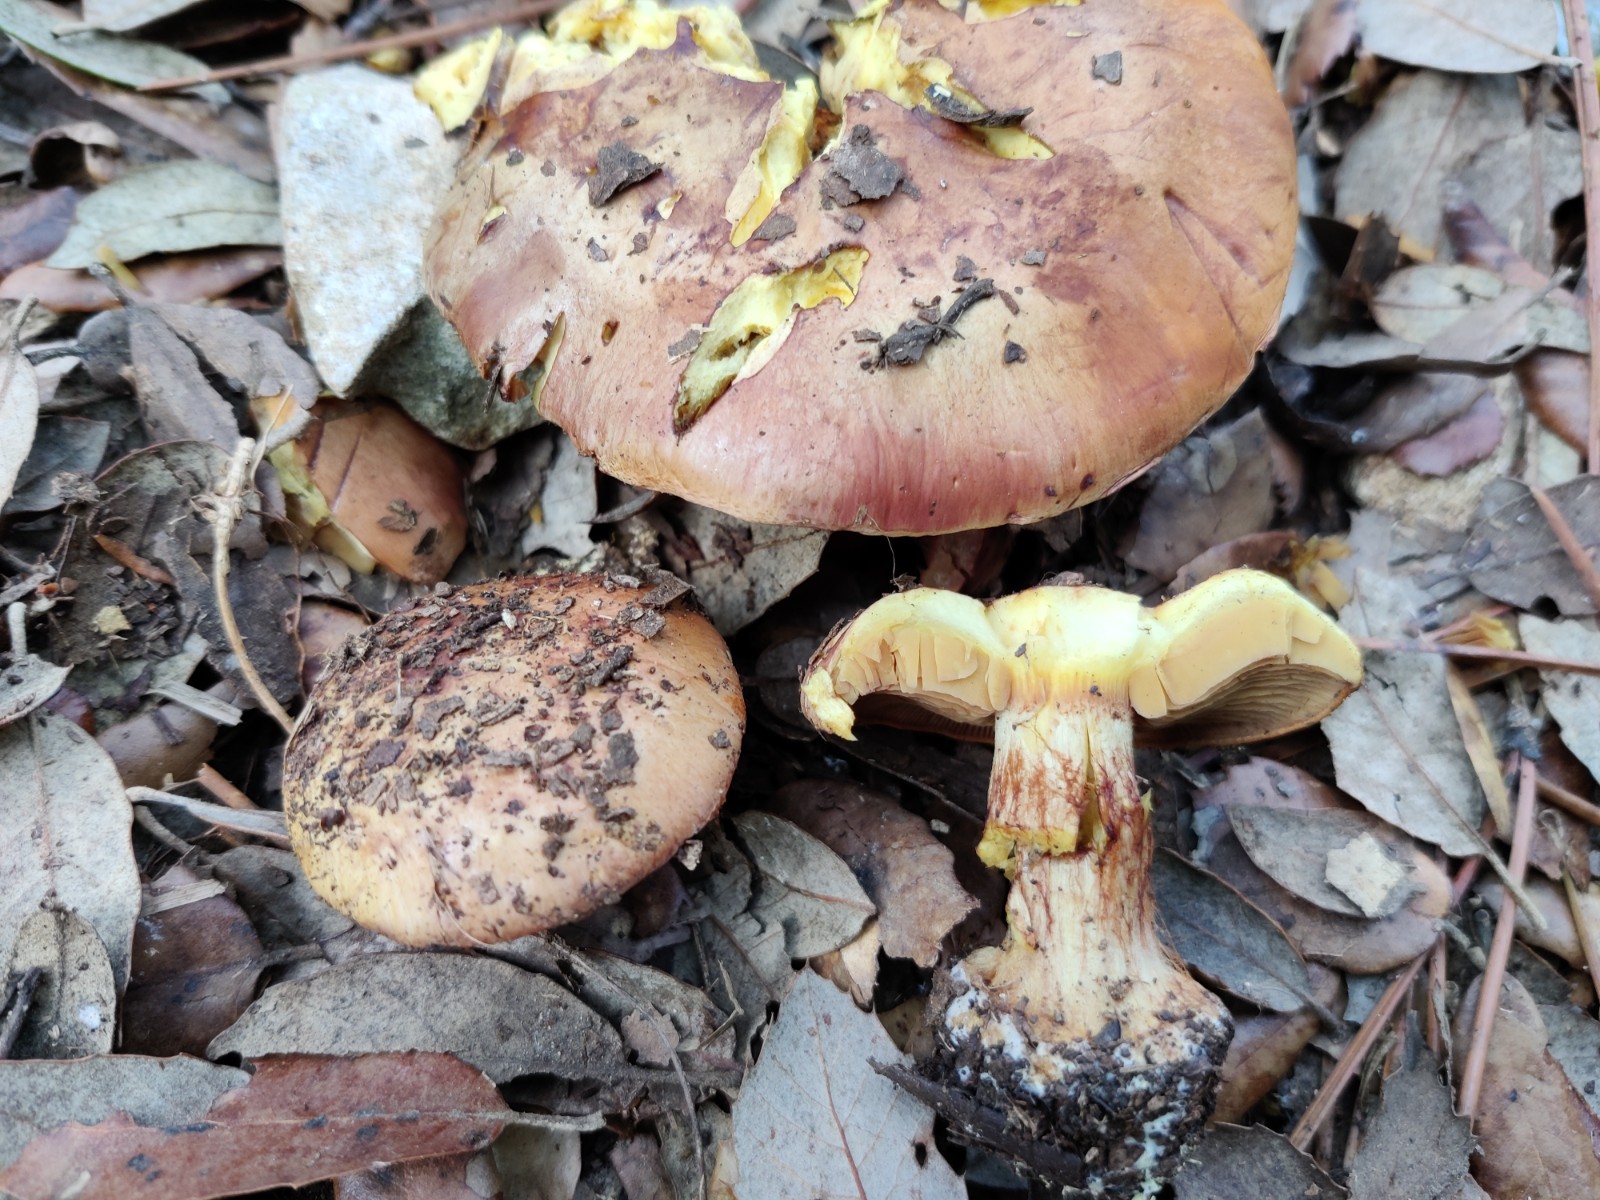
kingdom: Fungi
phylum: Basidiomycota
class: Agaricomycetes
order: Agaricales
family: Cortinariaceae
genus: Calonarius
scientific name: Calonarius splendificus
